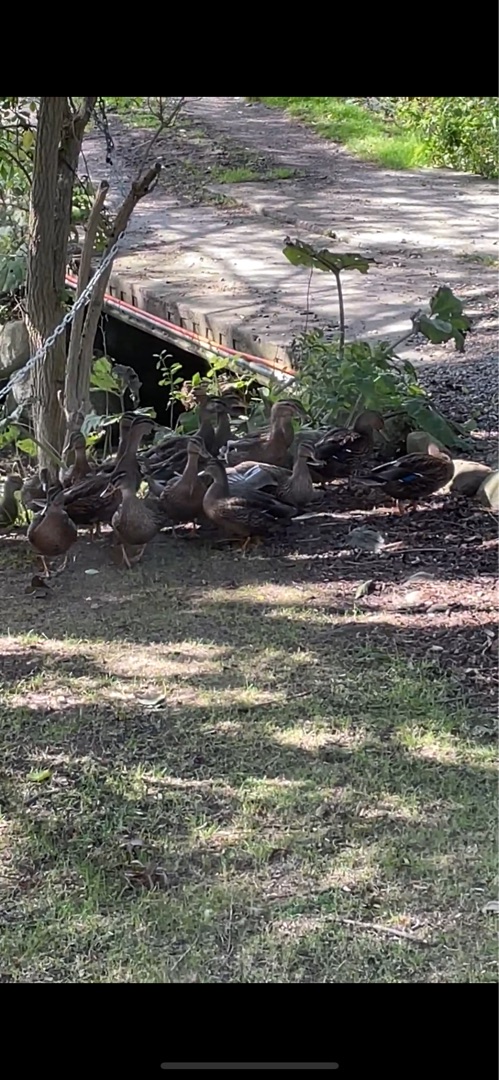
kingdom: Animalia
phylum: Chordata
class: Aves
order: Anseriformes
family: Anatidae
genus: Anas
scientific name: Anas platyrhynchos
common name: Gråand
